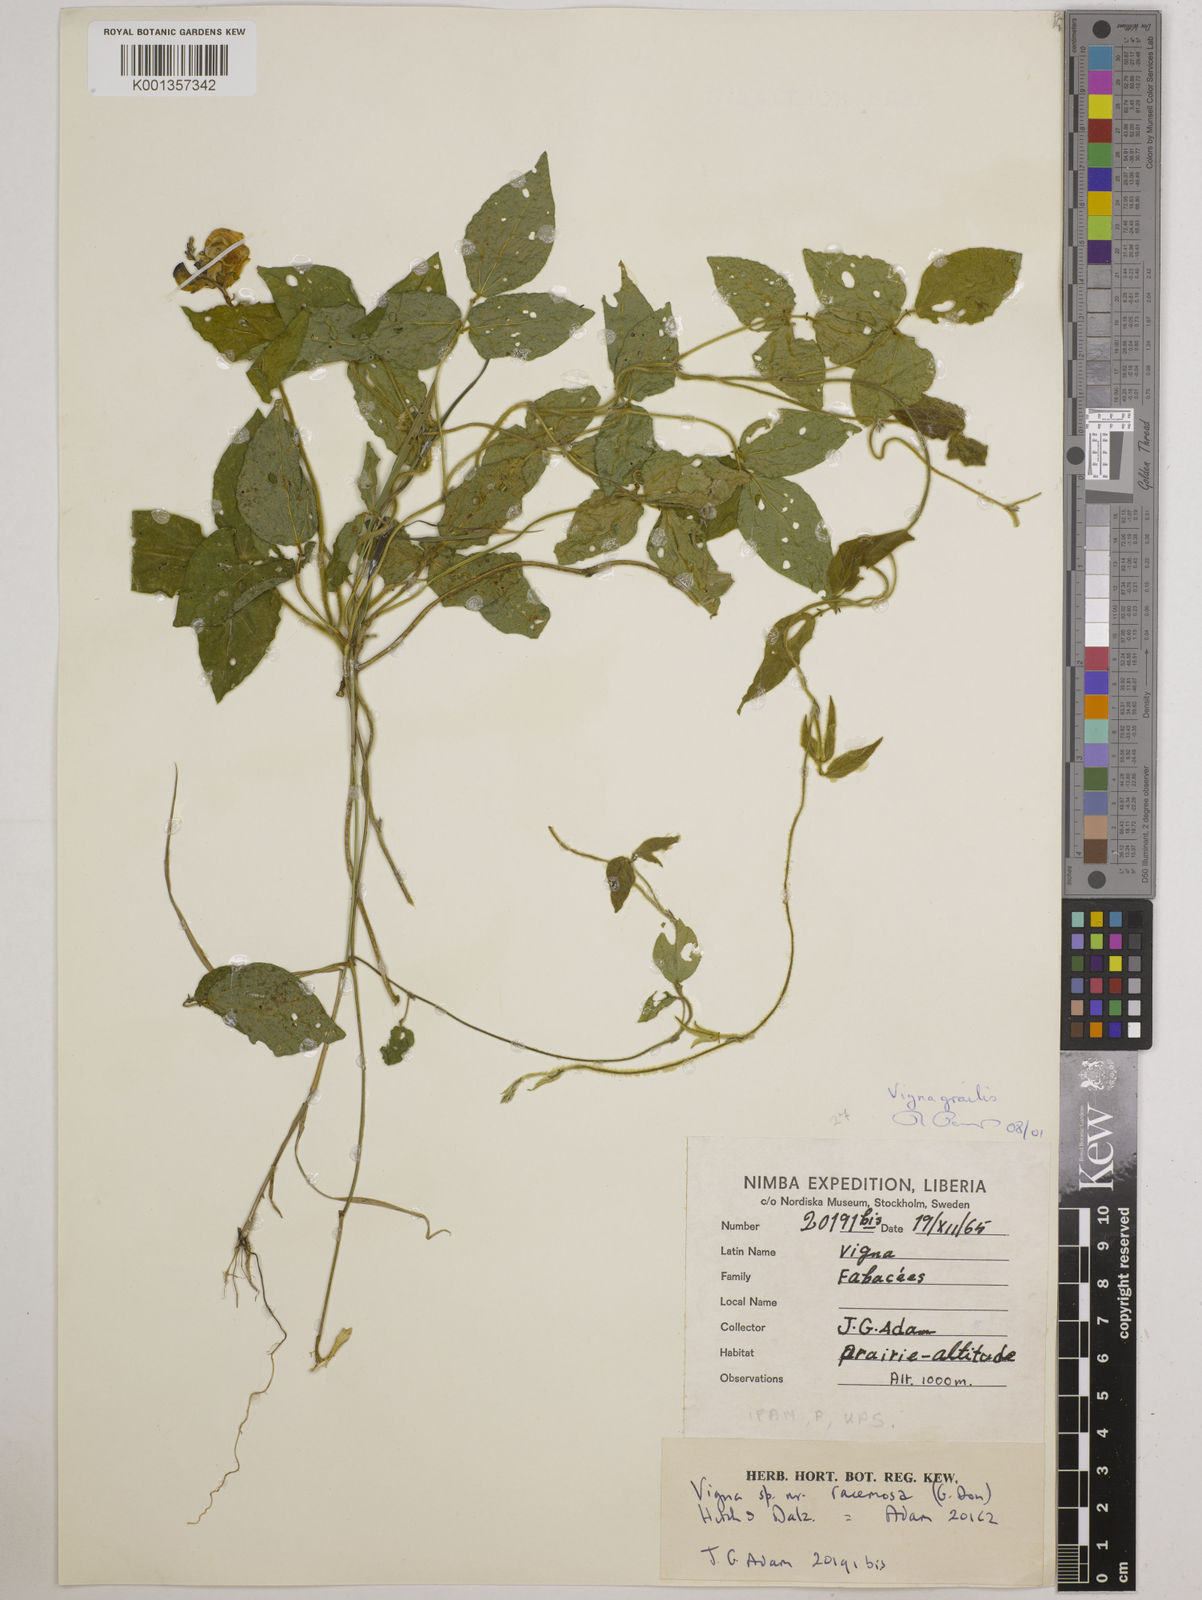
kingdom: Plantae
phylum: Tracheophyta
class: Magnoliopsida
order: Fabales
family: Fabaceae
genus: Vigna
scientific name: Vigna gracilis
